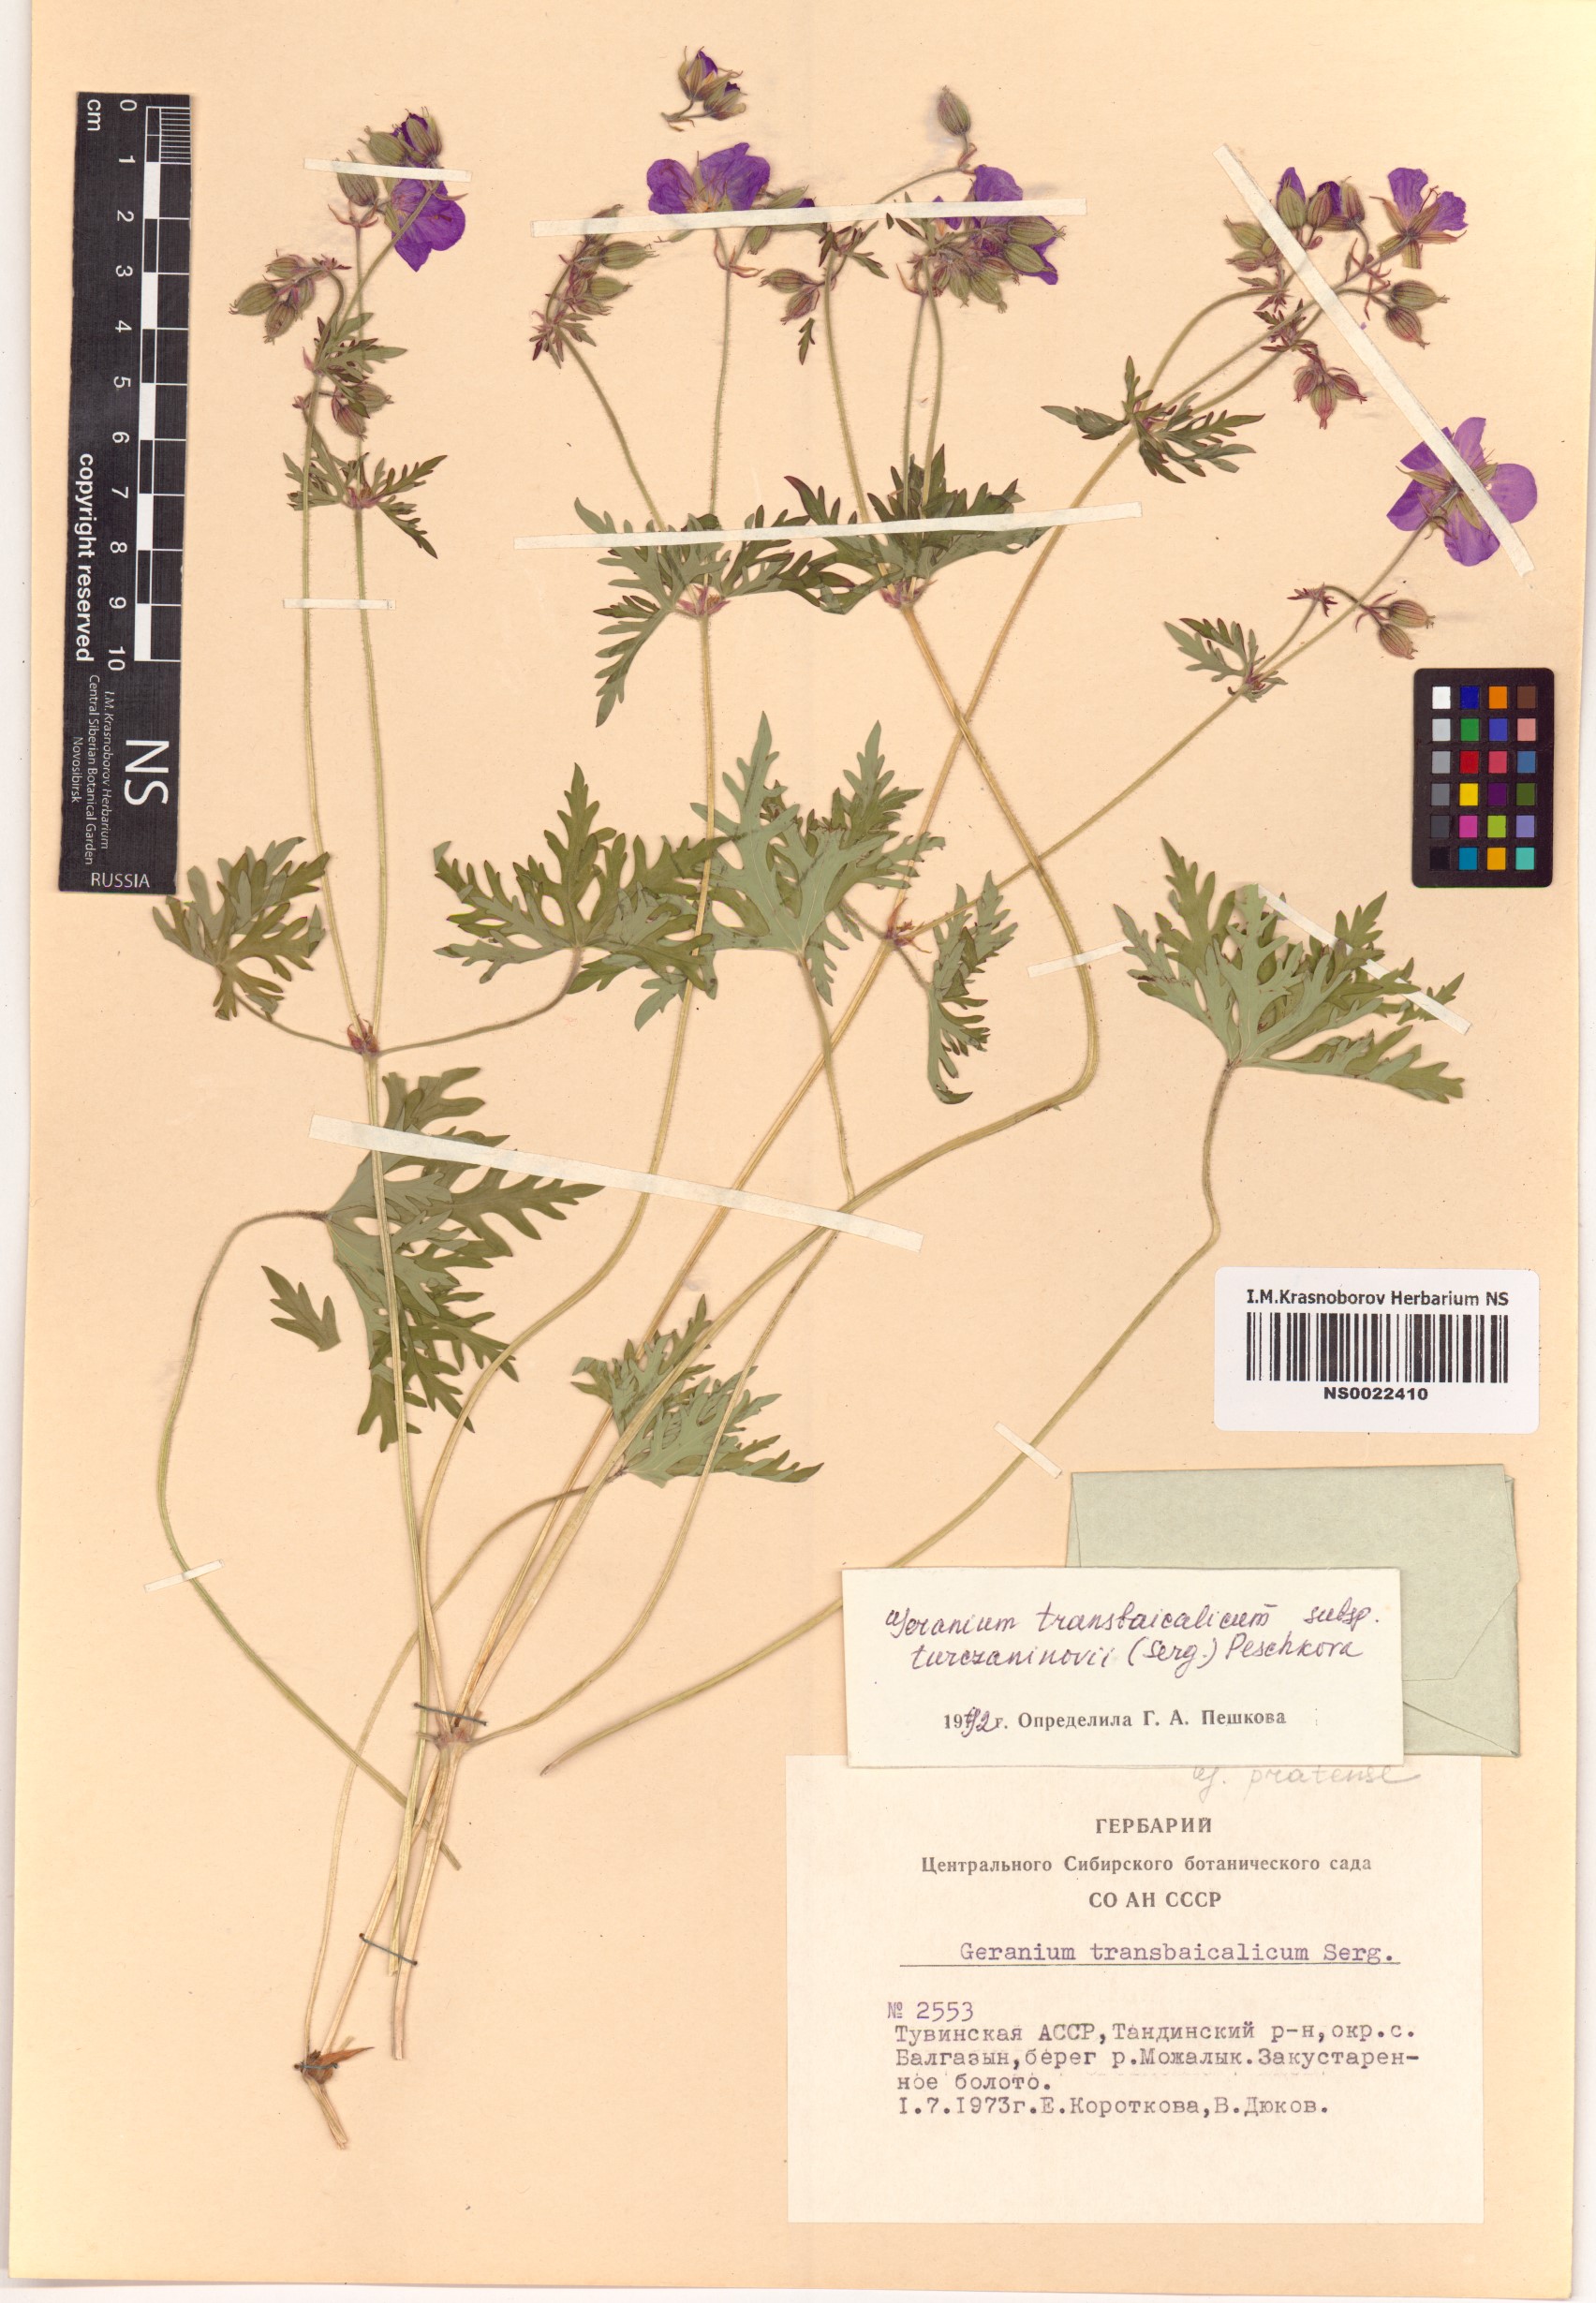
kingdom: Plantae
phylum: Tracheophyta
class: Magnoliopsida
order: Geraniales
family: Geraniaceae
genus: Geranium
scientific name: Geranium pratense
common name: Meadow crane's-bill
